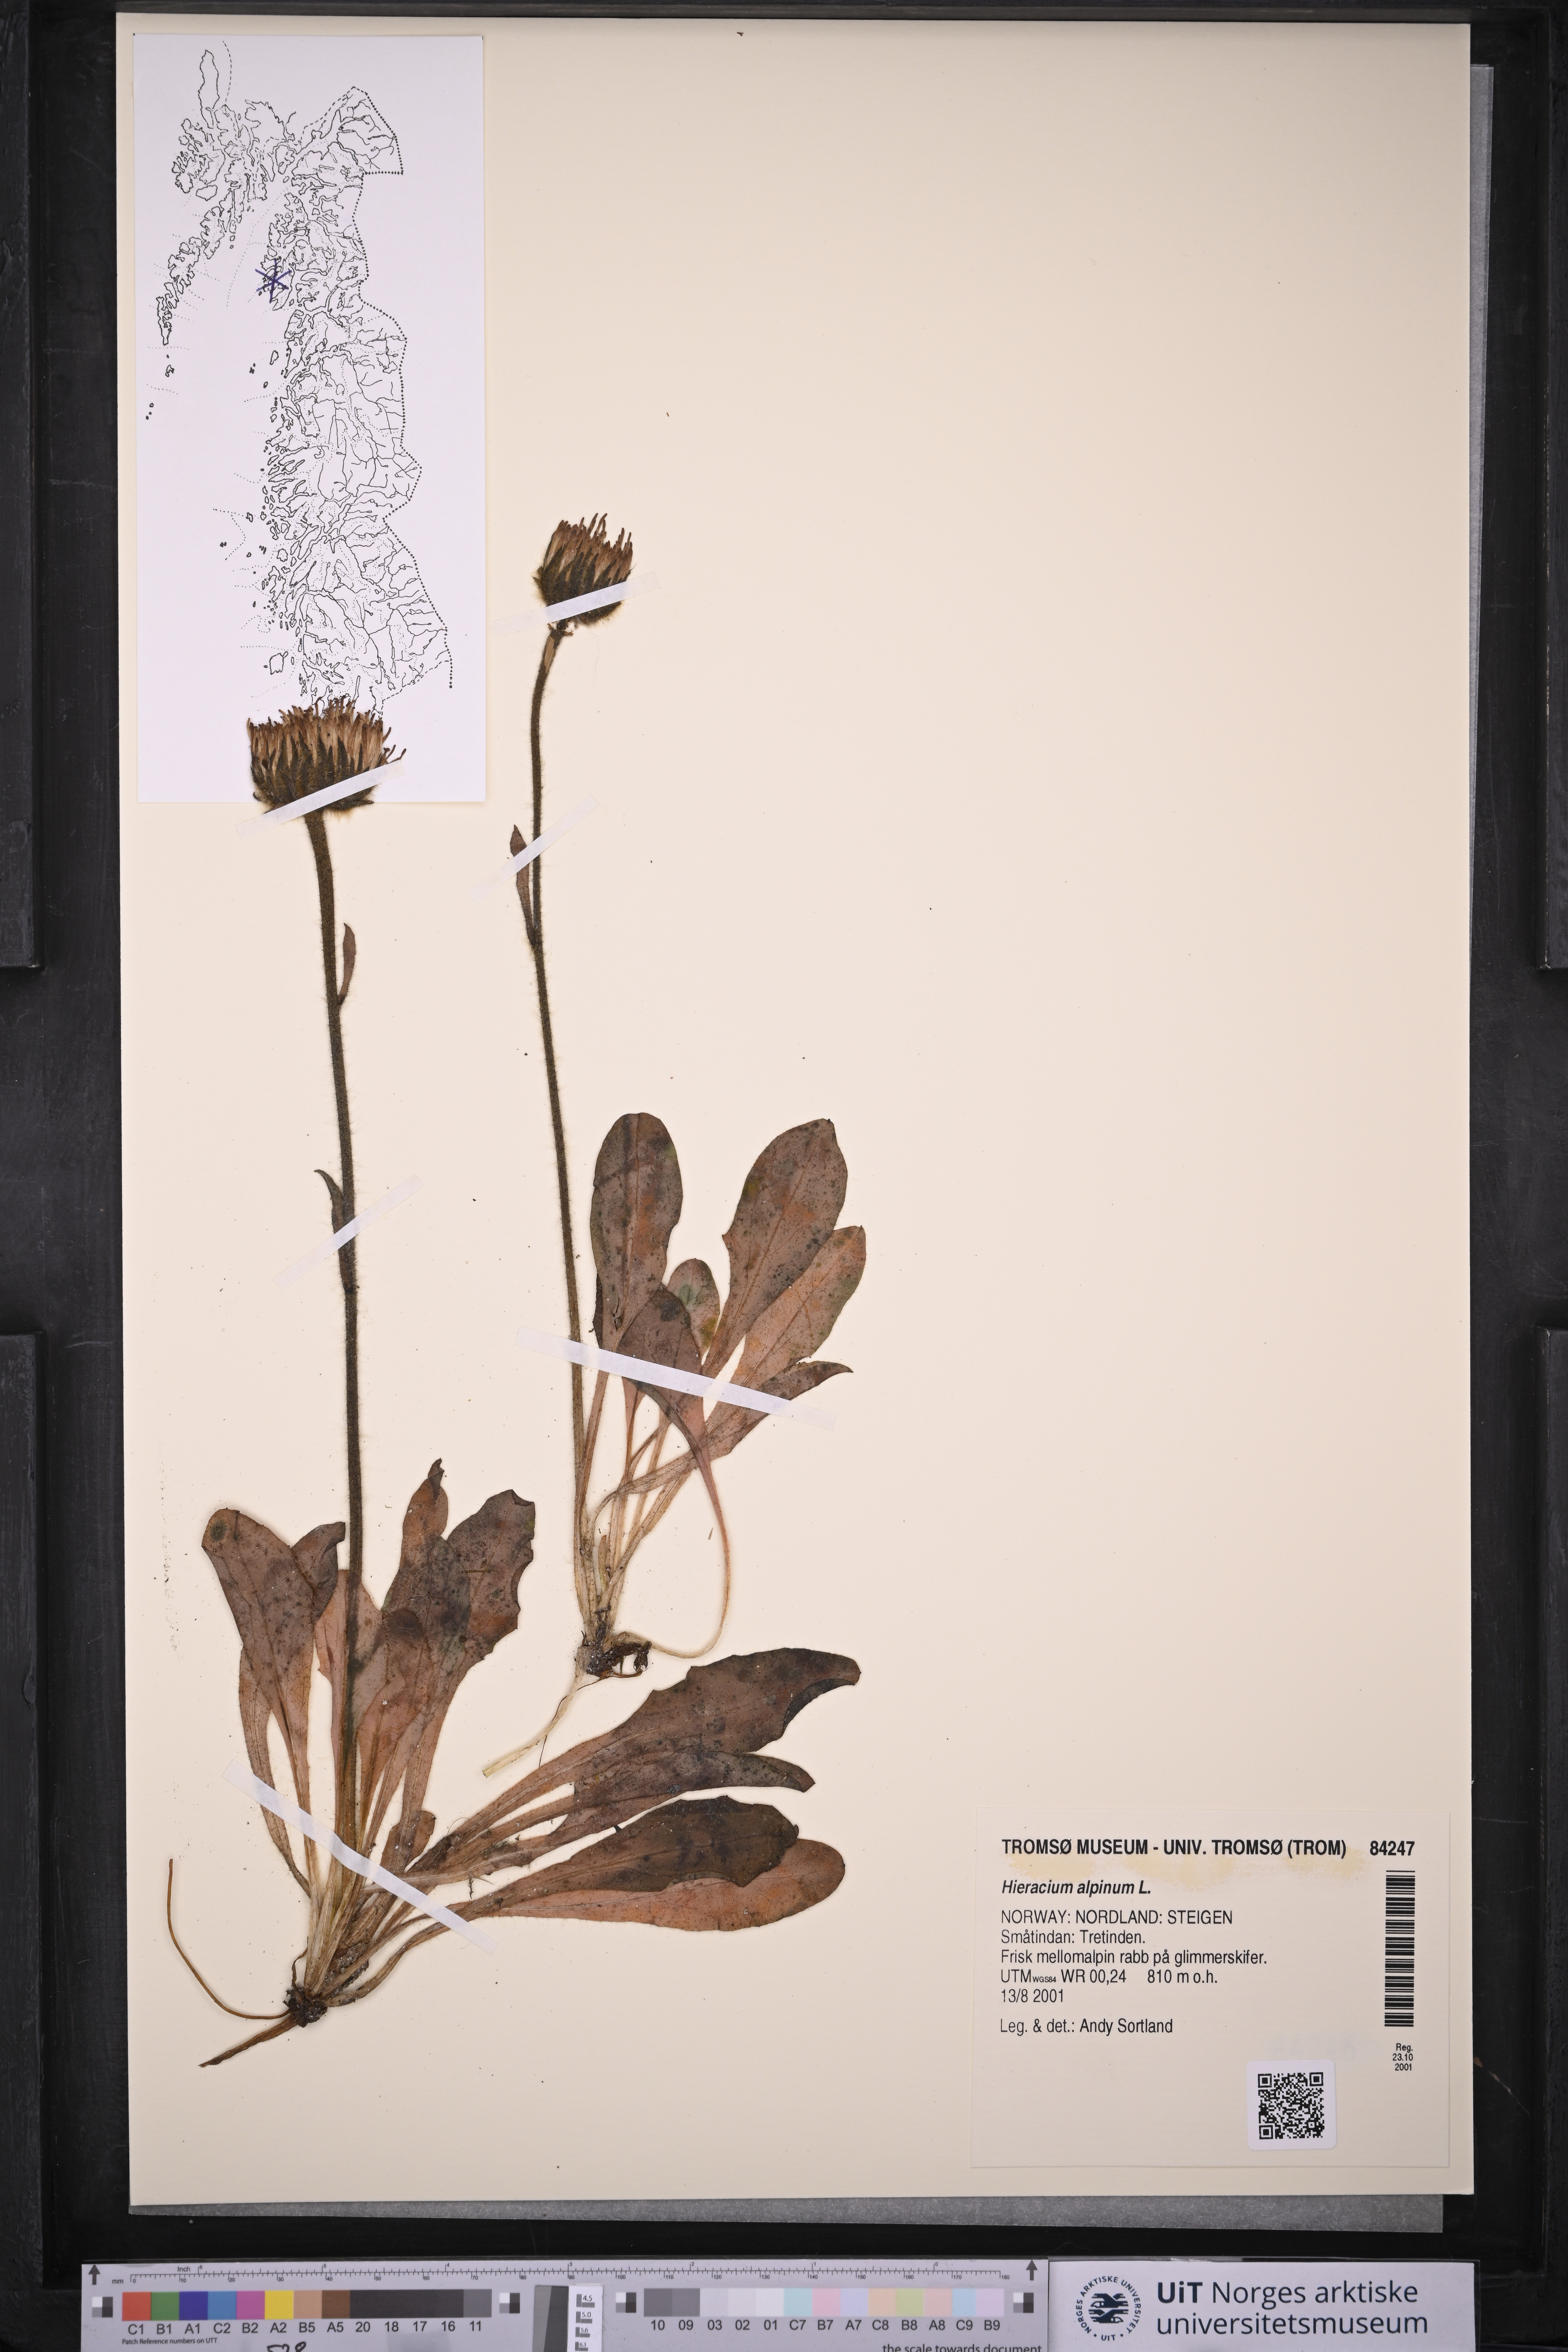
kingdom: Plantae
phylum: Tracheophyta
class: Magnoliopsida
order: Asterales
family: Asteraceae
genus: Hieracium
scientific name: Hieracium alpinum
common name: Alpine hawkweed
